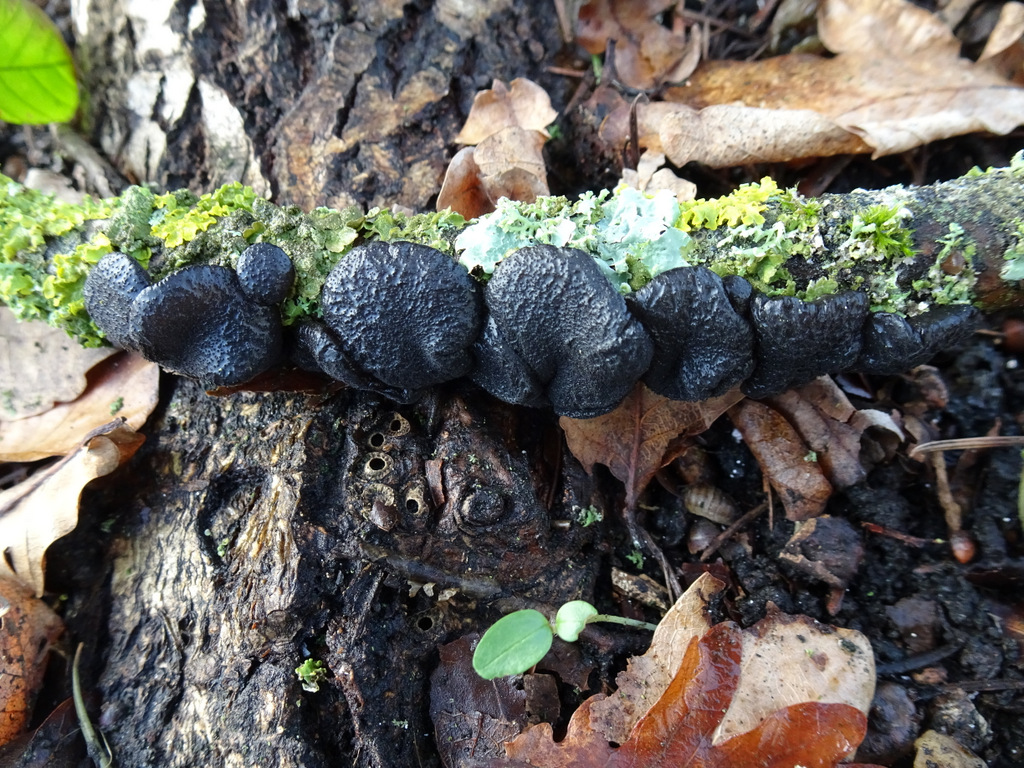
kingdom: Fungi
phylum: Basidiomycota
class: Agaricomycetes
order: Auriculariales
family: Auriculariaceae
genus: Exidia
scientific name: Exidia glandulosa
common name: ege-bævretop
